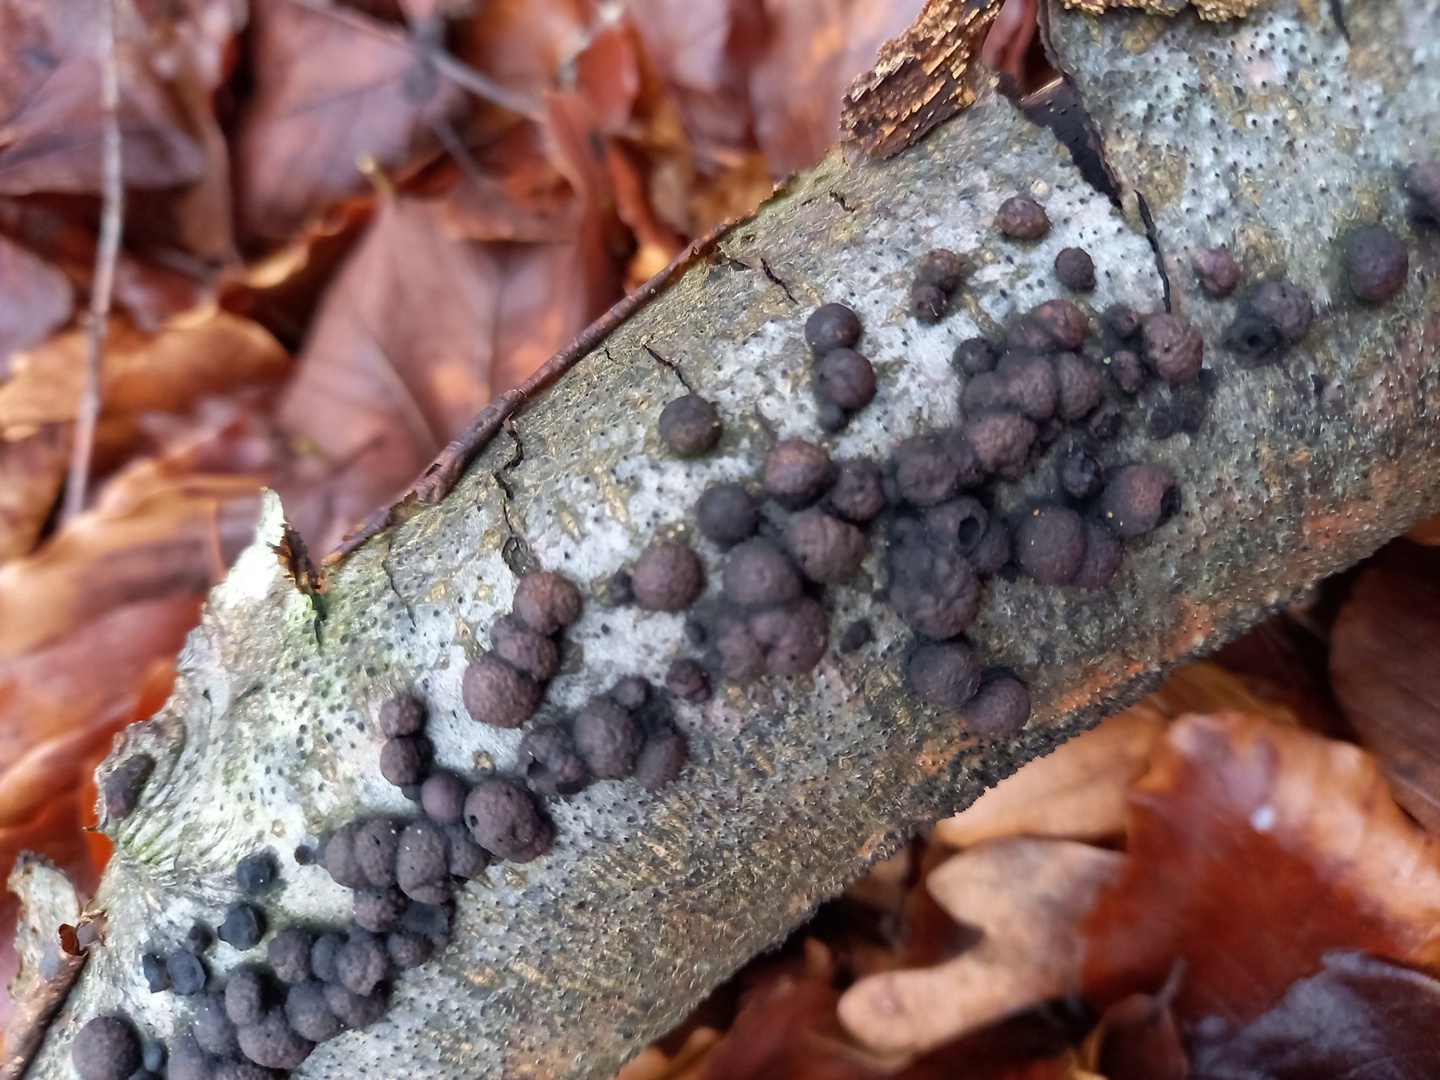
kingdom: Fungi
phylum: Ascomycota
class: Sordariomycetes
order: Xylariales
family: Hypoxylaceae
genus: Hypoxylon
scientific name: Hypoxylon fragiforme
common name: kuljordbær
